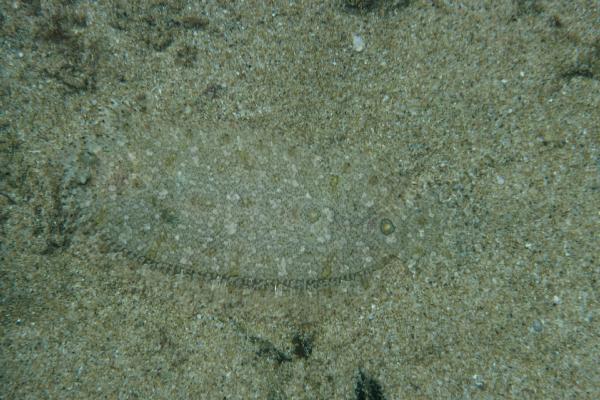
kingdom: Animalia
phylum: Chordata
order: Pleuronectiformes
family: Samaridae
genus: Samariscus
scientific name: Samariscus triocellatus
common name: Three-spot righteye flounder
